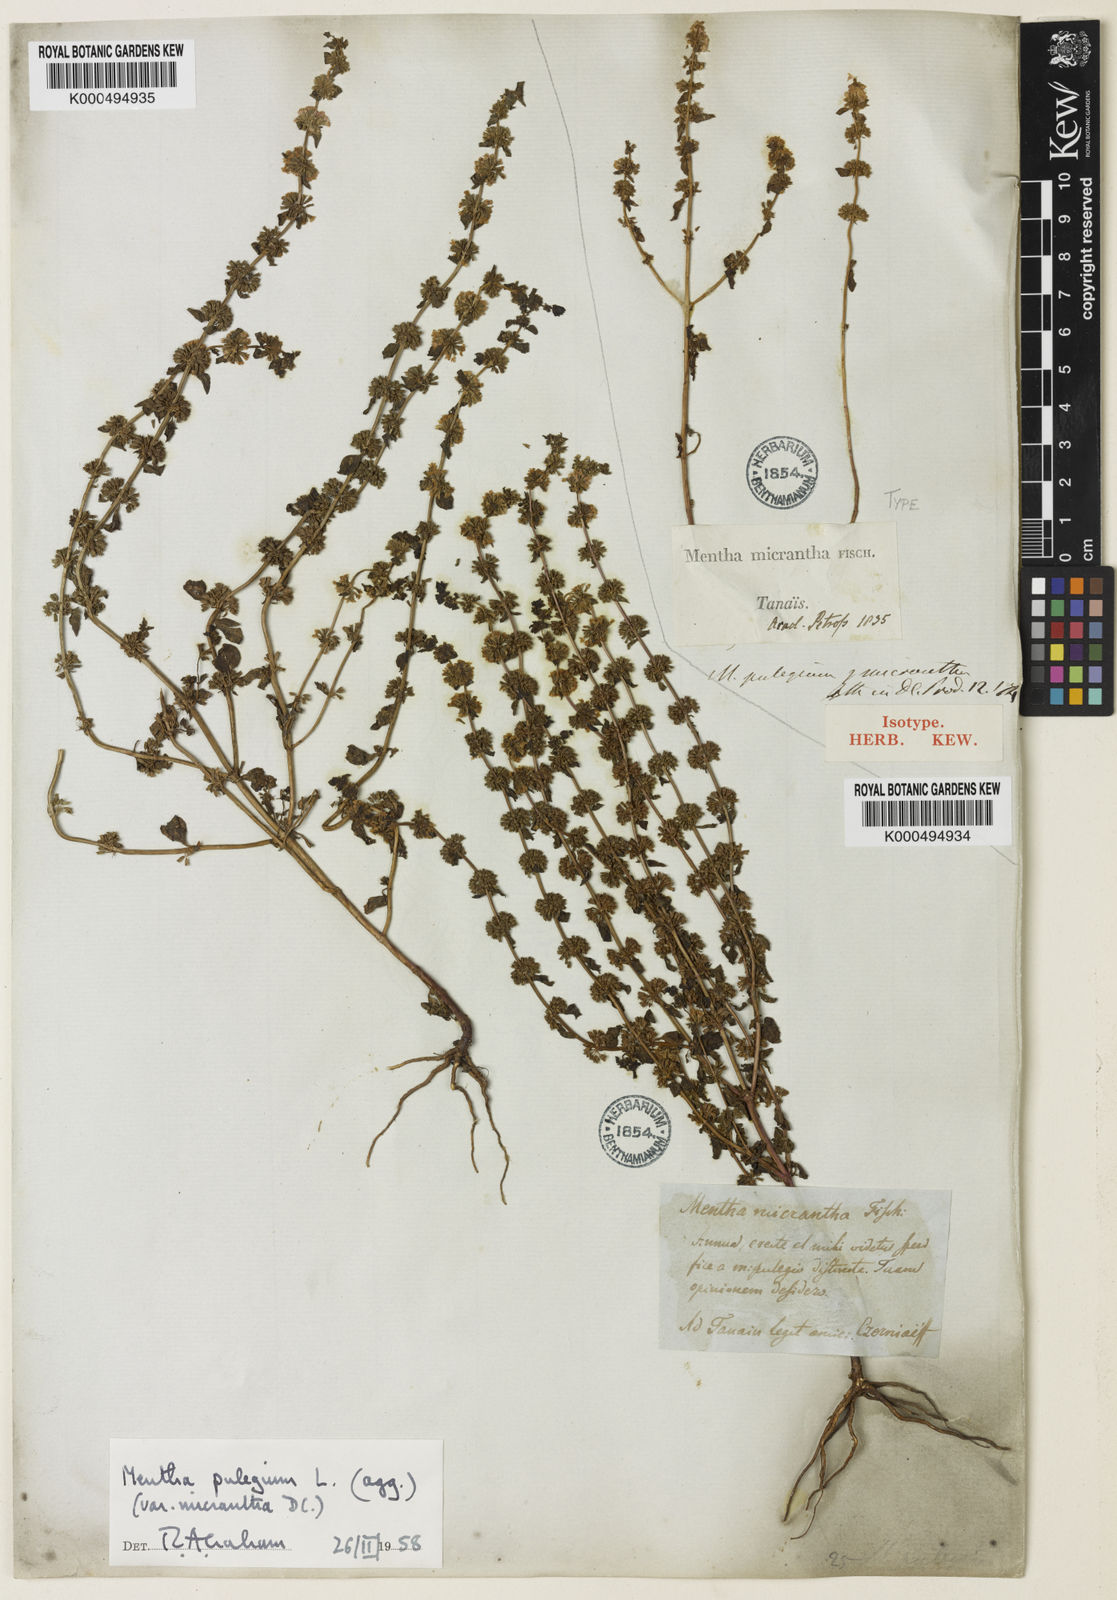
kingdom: Plantae
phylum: Tracheophyta
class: Magnoliopsida
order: Lamiales
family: Lamiaceae
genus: Mentha
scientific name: Mentha micrantha
